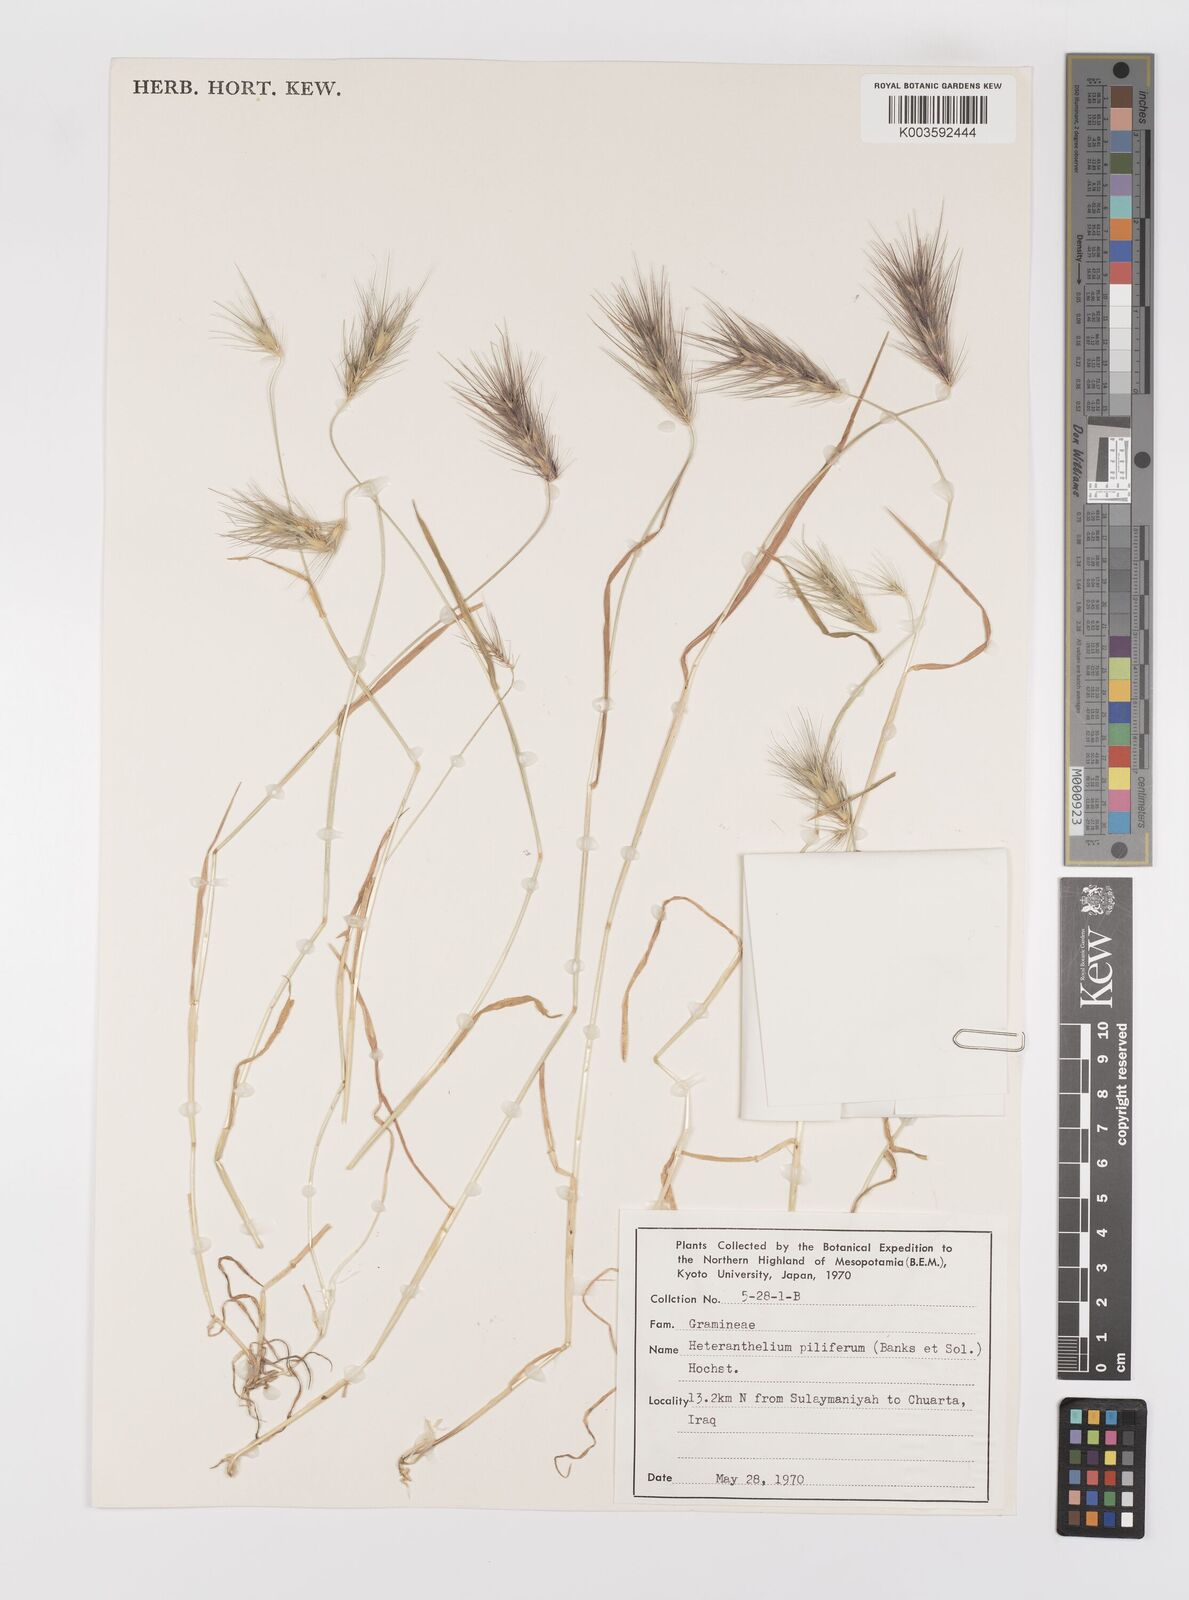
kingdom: Plantae
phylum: Tracheophyta
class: Liliopsida
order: Poales
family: Poaceae
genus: Heteranthelium
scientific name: Heteranthelium piliferum
